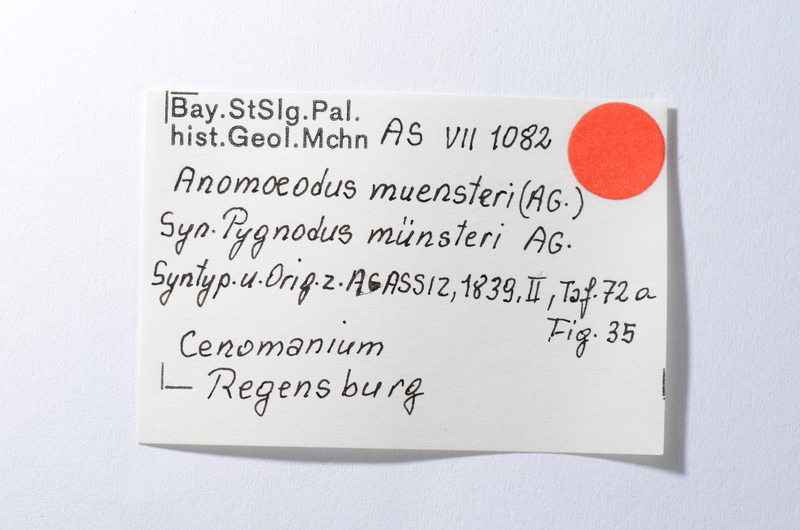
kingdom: Animalia
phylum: Chordata
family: Pycnodontidae
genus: Anomoeodus
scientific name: Anomoeodus
